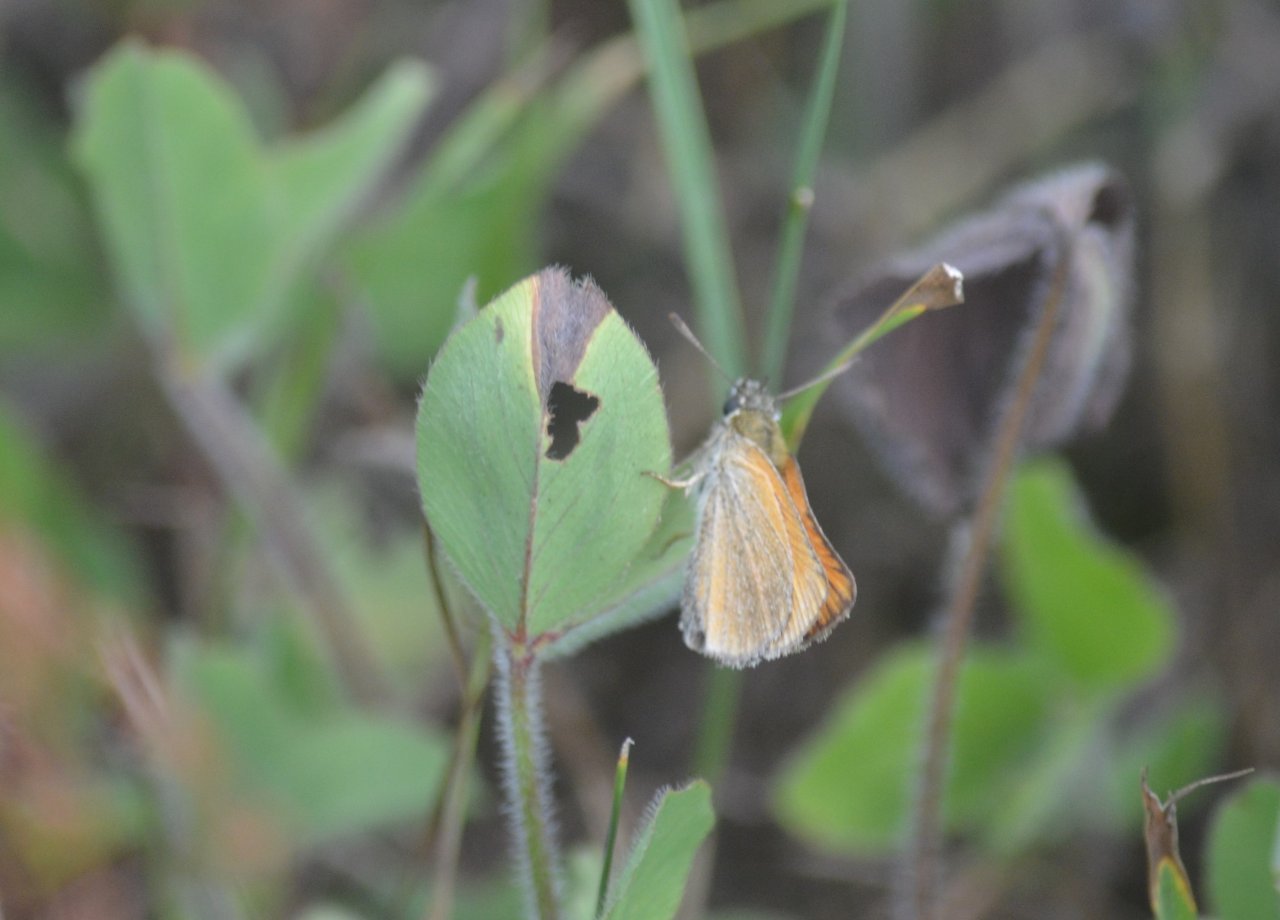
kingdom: Animalia
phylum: Arthropoda
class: Insecta
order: Lepidoptera
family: Hesperiidae
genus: Thymelicus
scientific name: Thymelicus lineola
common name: European Skipper
